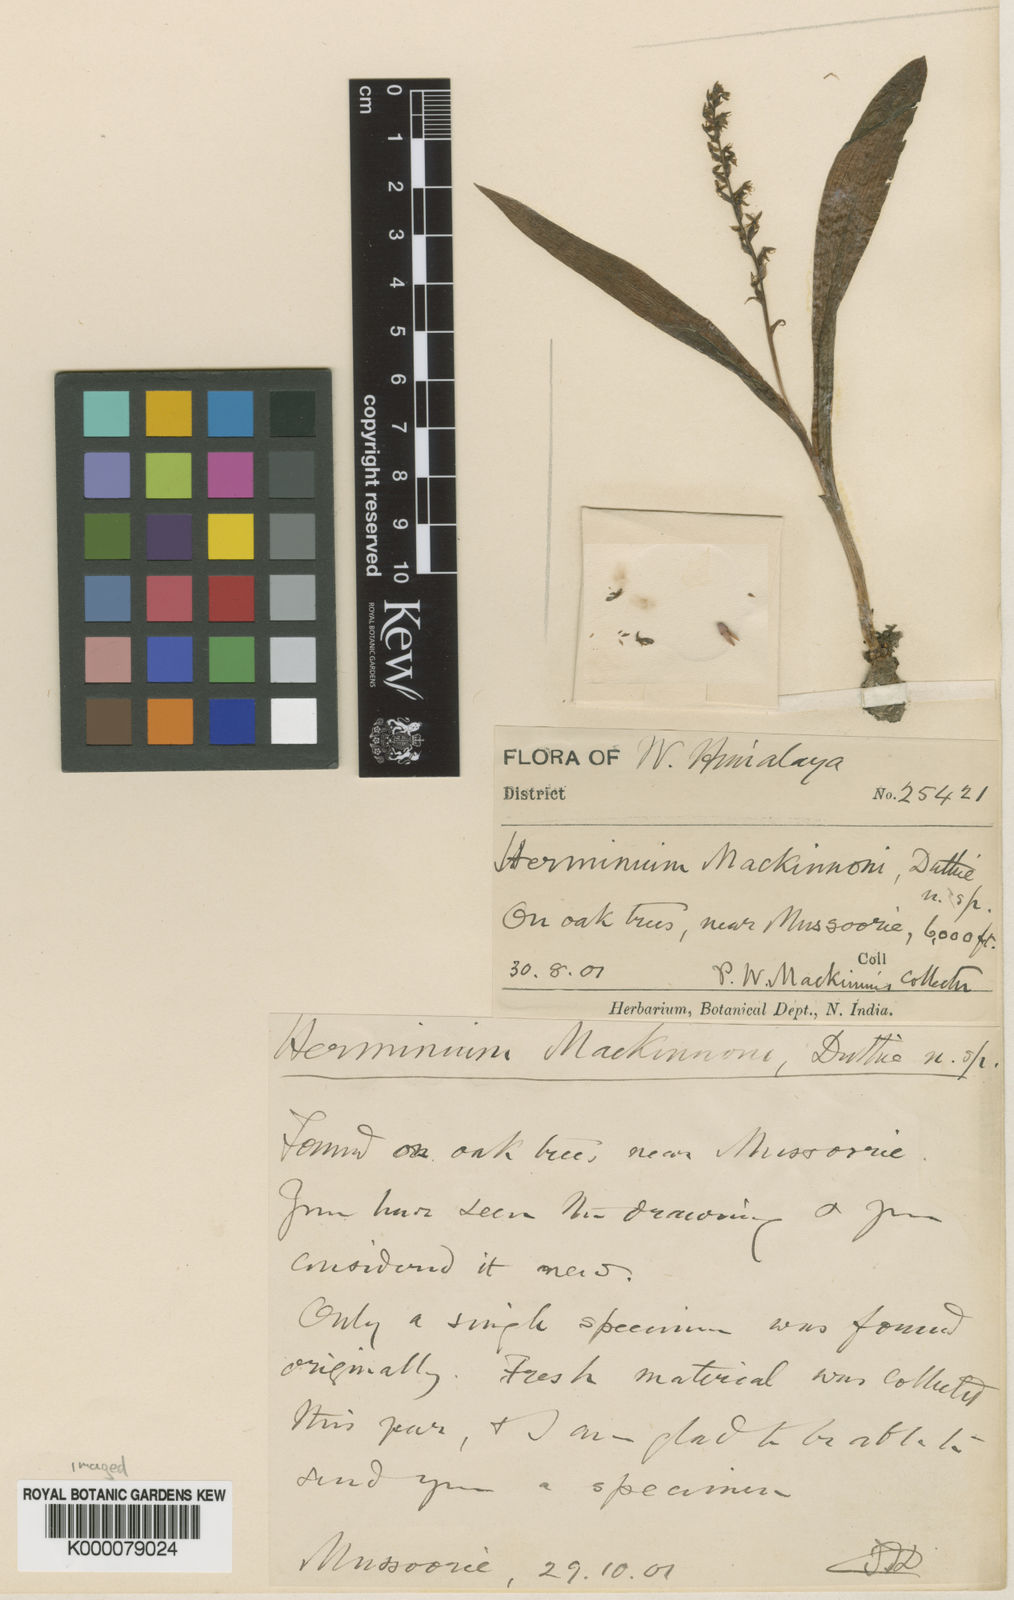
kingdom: Plantae
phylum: Tracheophyta
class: Liliopsida
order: Asparagales
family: Orchidaceae
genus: Herminium
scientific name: Herminium mackinonii
